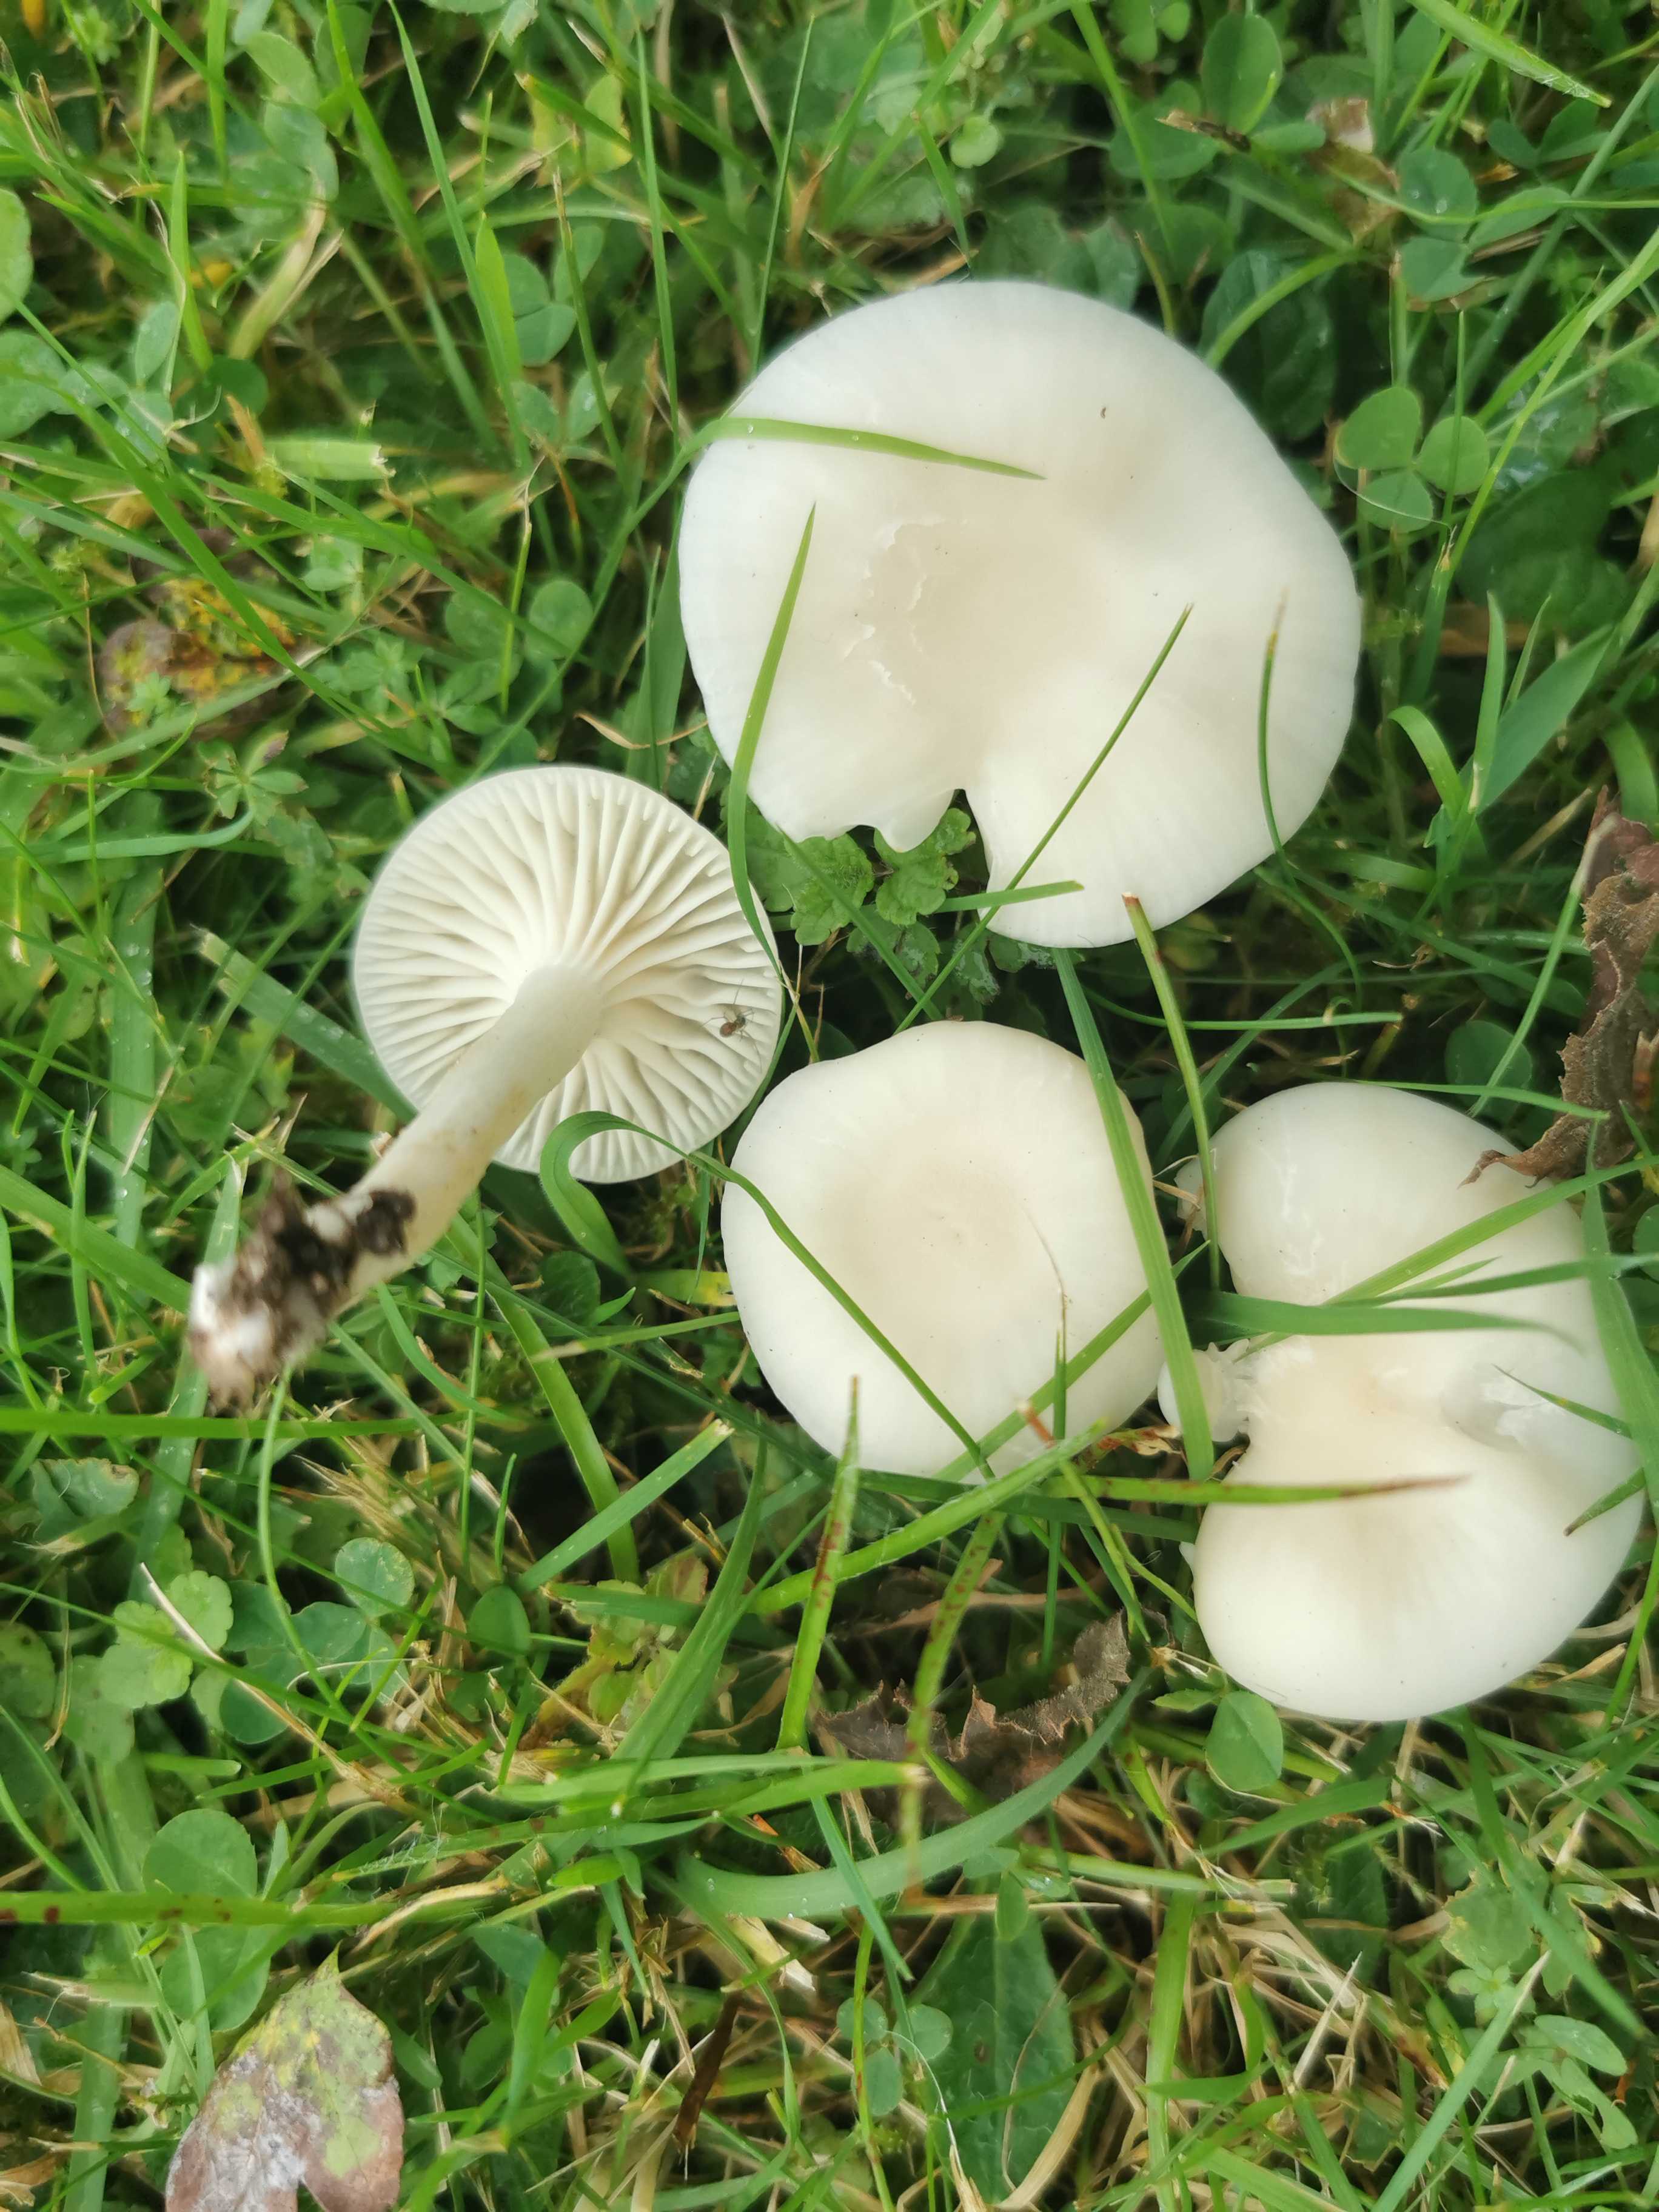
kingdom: Fungi
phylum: Basidiomycota
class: Agaricomycetes
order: Agaricales
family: Hygrophoraceae
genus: Cuphophyllus
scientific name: Cuphophyllus virgineus
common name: snehvid vokshat
